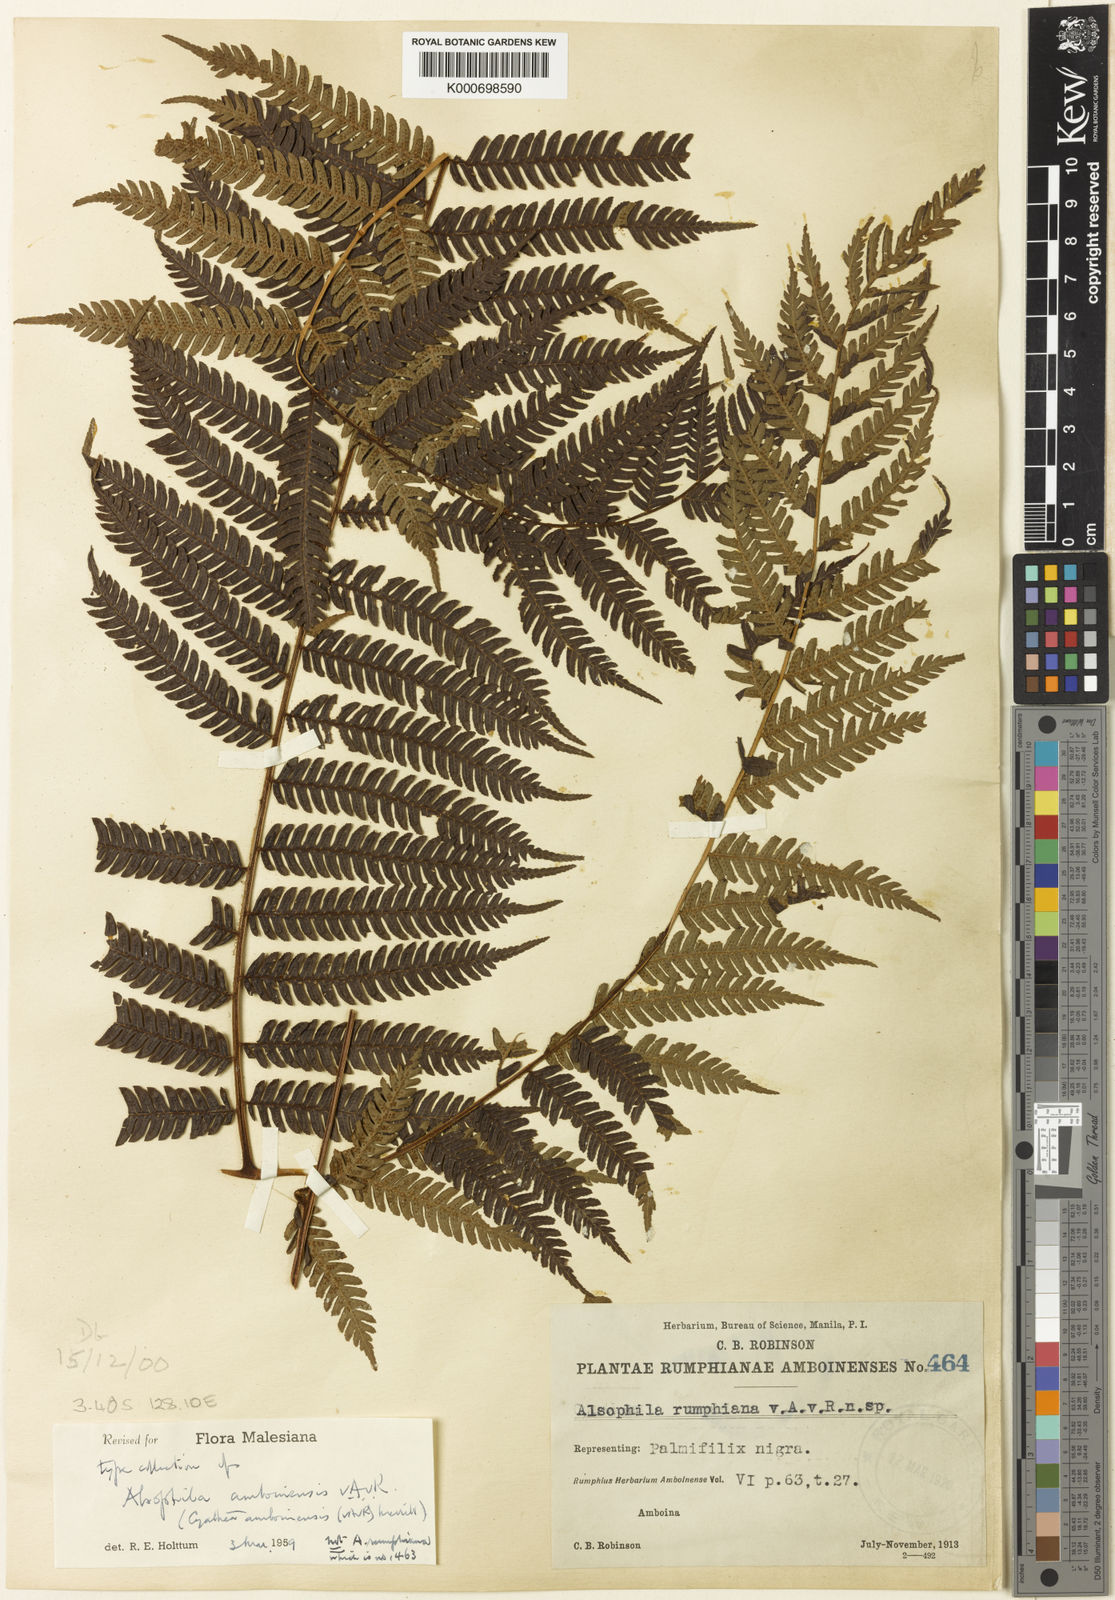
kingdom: Plantae
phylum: Tracheophyta
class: Polypodiopsida
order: Cyatheales
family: Cyatheaceae
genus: Alsophila
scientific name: Alsophila amboinensis
